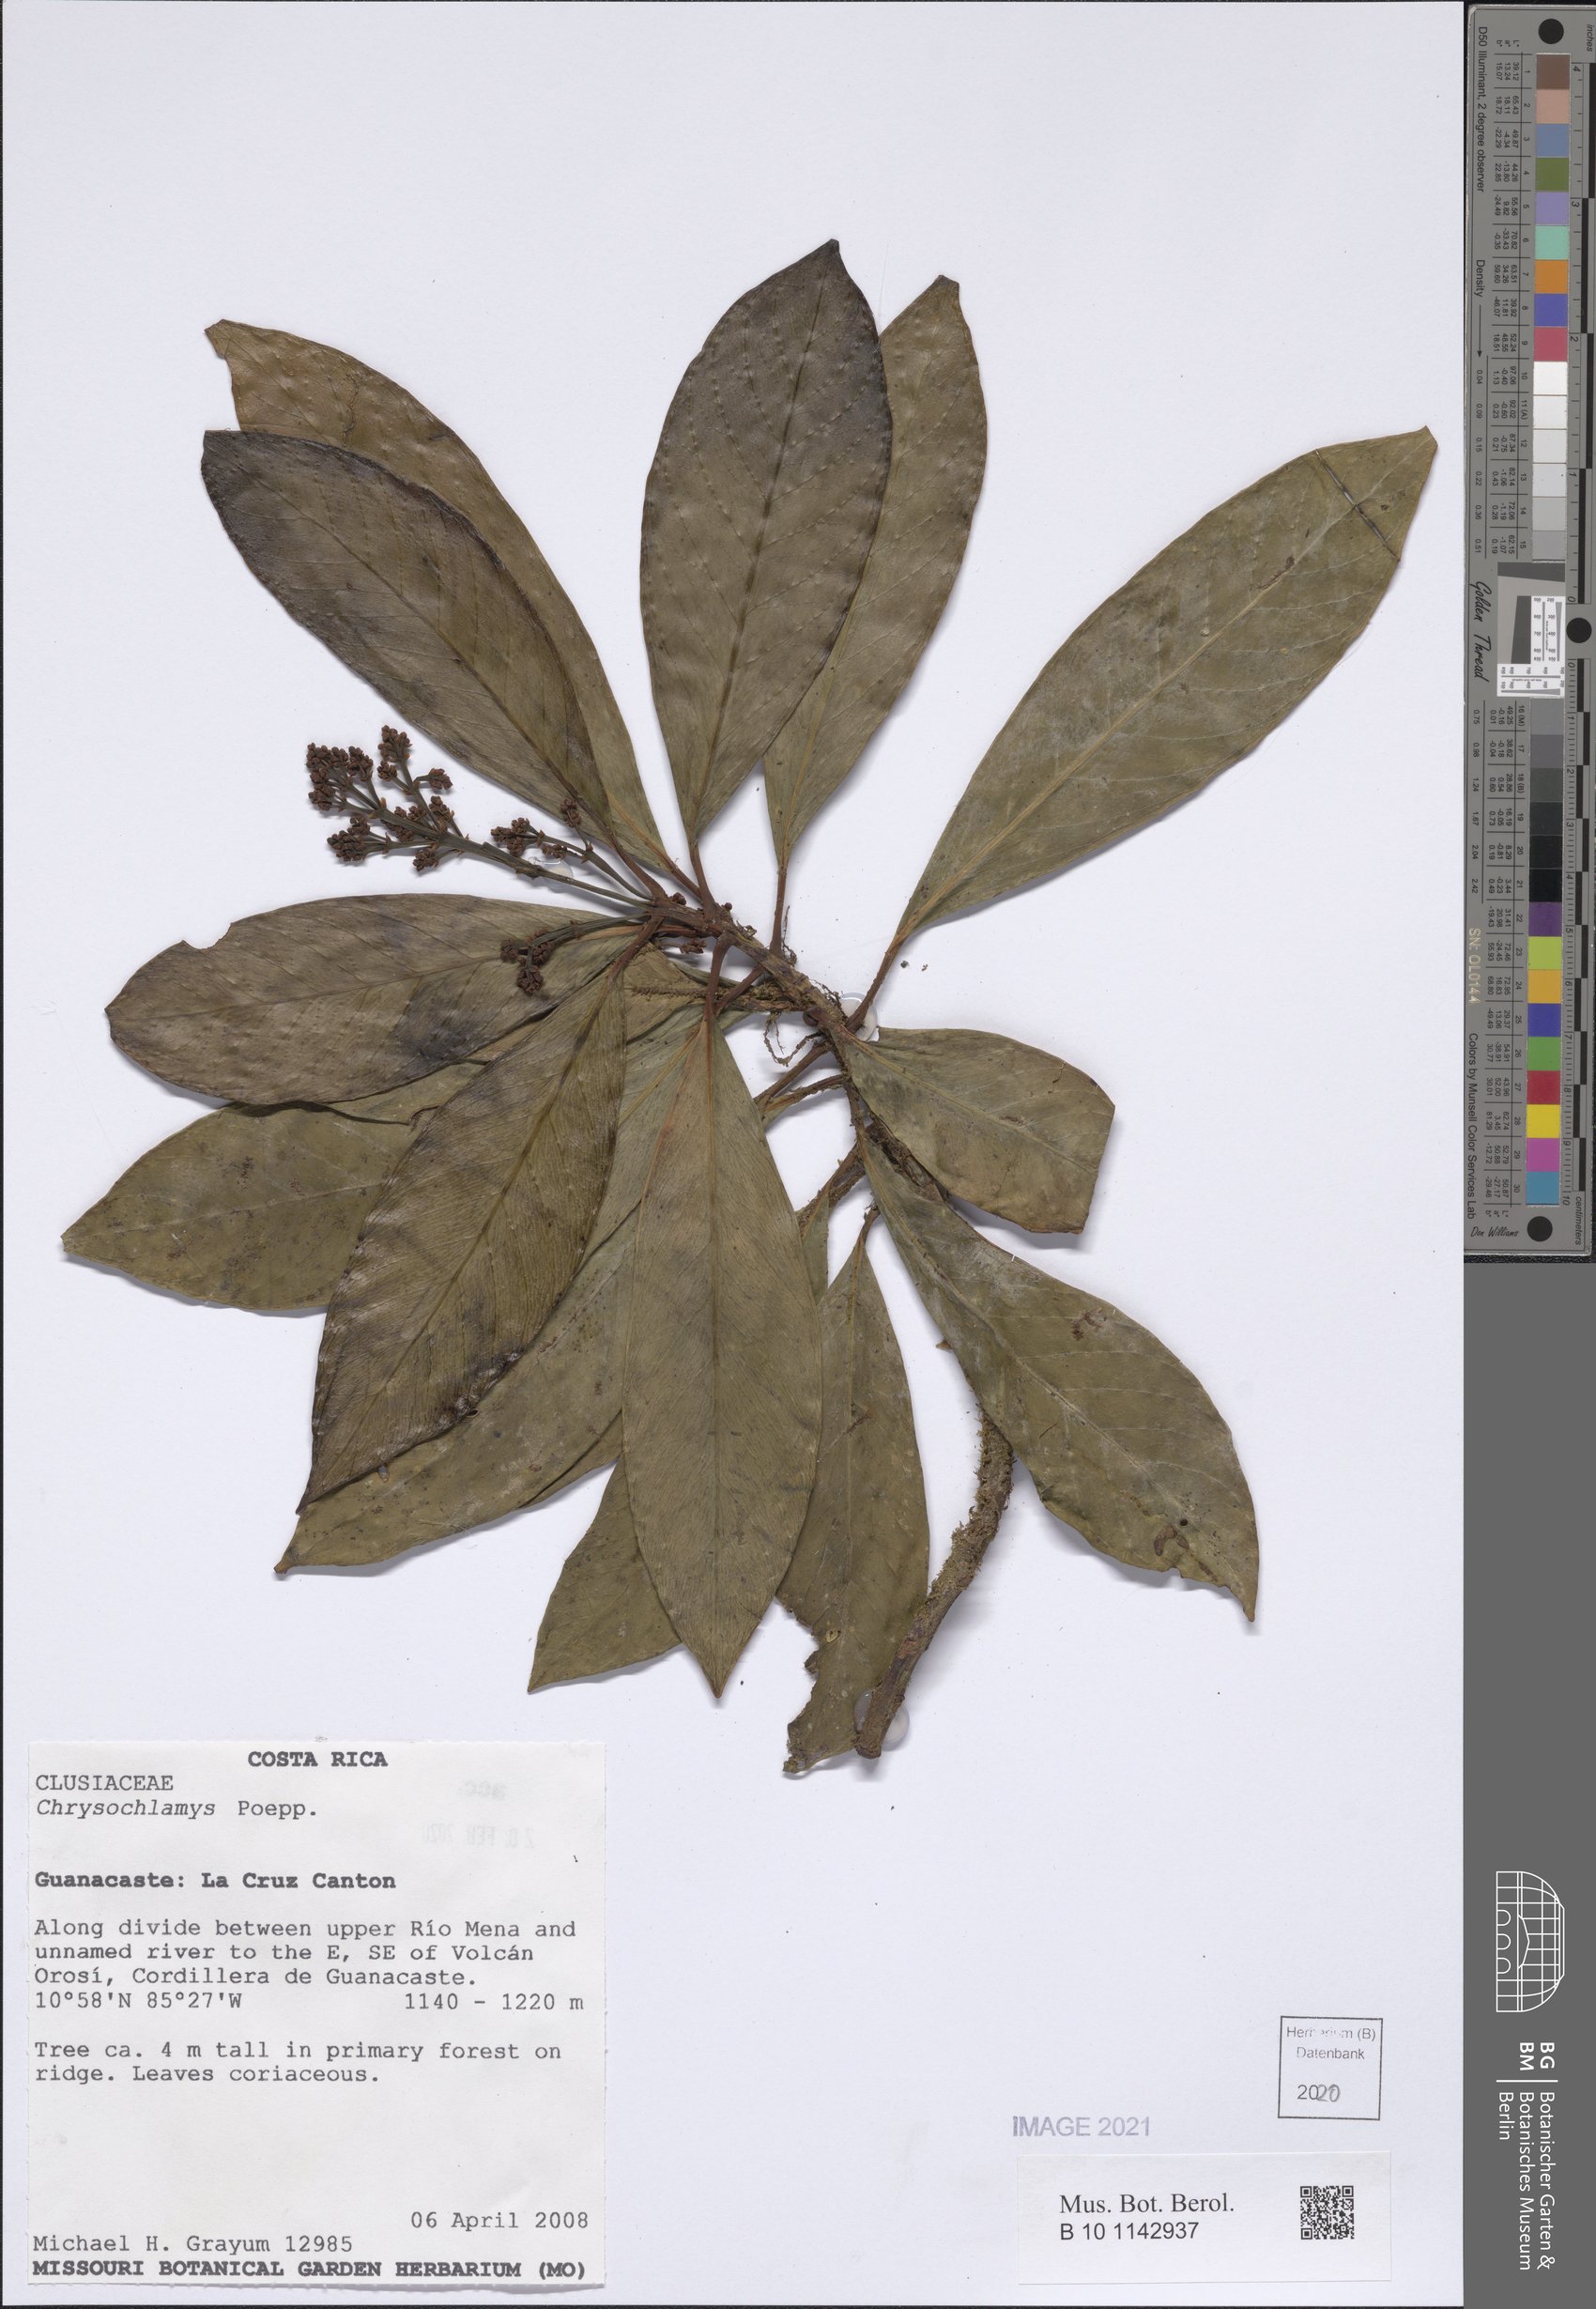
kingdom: Plantae
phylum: Tracheophyta
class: Magnoliopsida
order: Malpighiales
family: Clusiaceae
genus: Chrysochlamys
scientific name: Chrysochlamys
